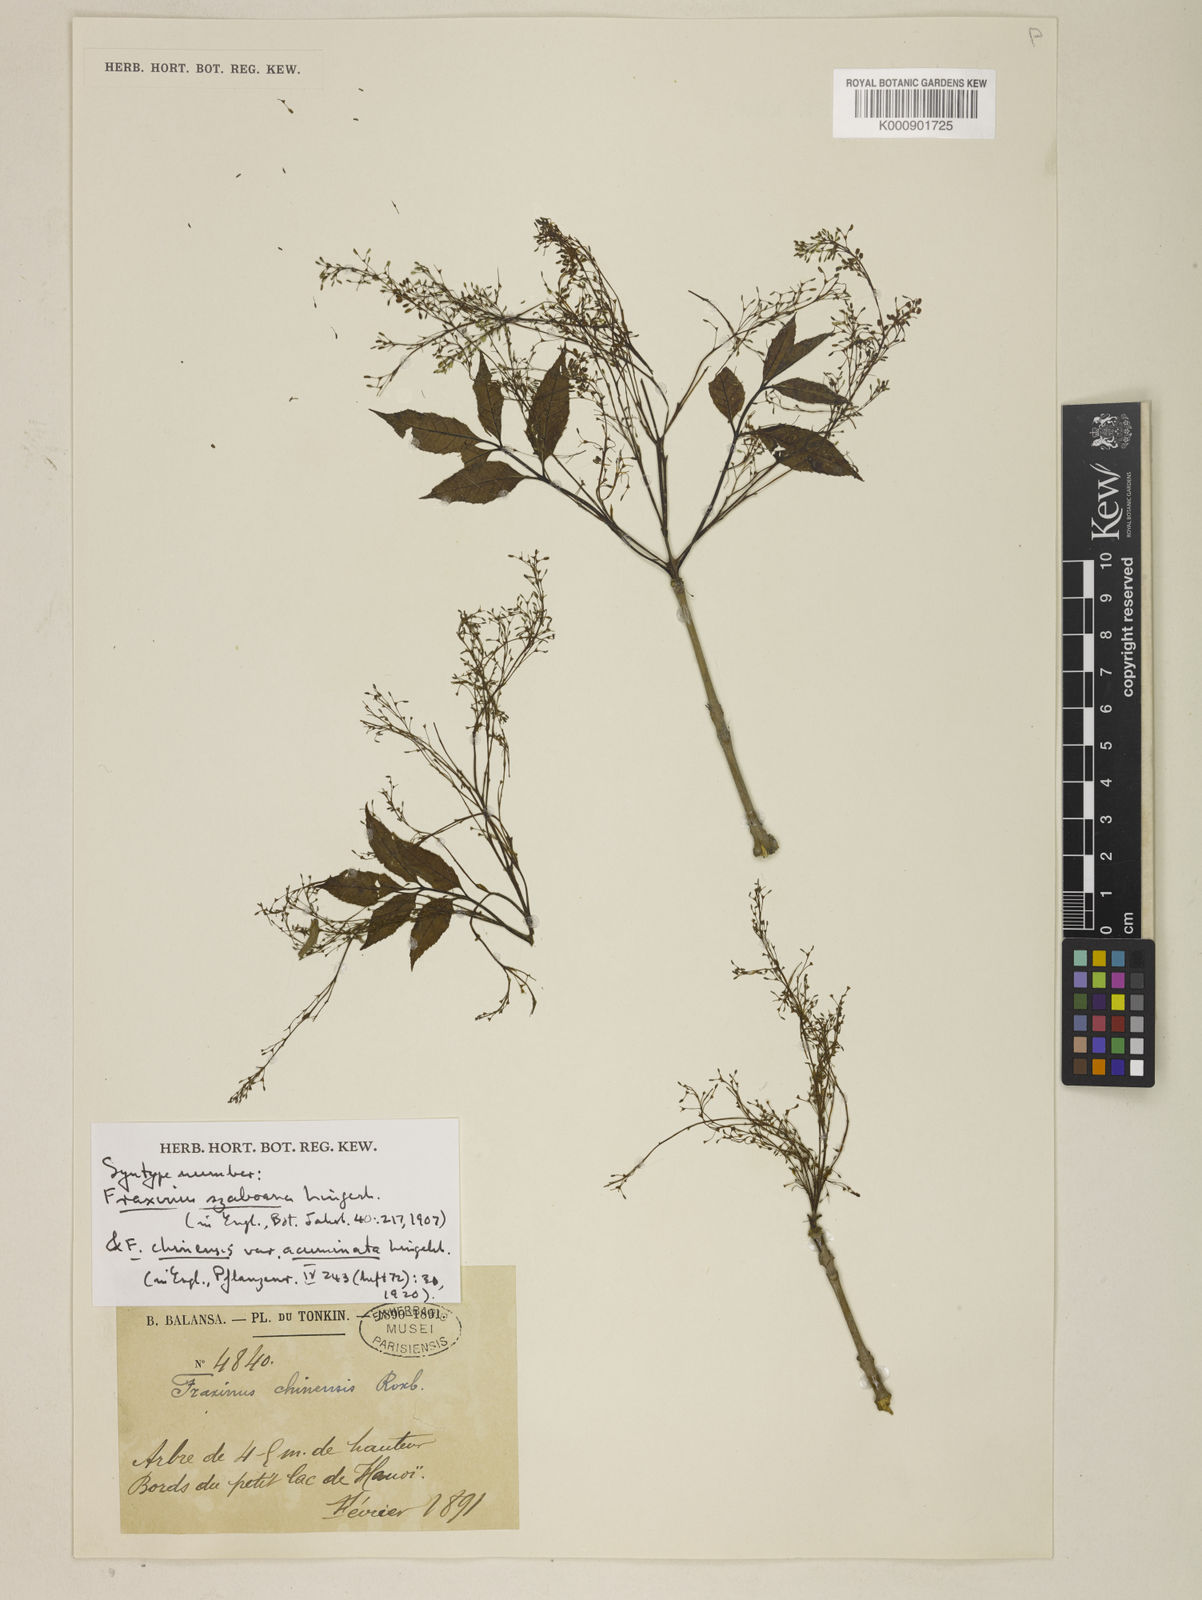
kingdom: Plantae
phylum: Tracheophyta
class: Magnoliopsida
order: Lamiales
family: Oleaceae
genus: Fraxinus
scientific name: Fraxinus chinensis
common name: Chinese ash
